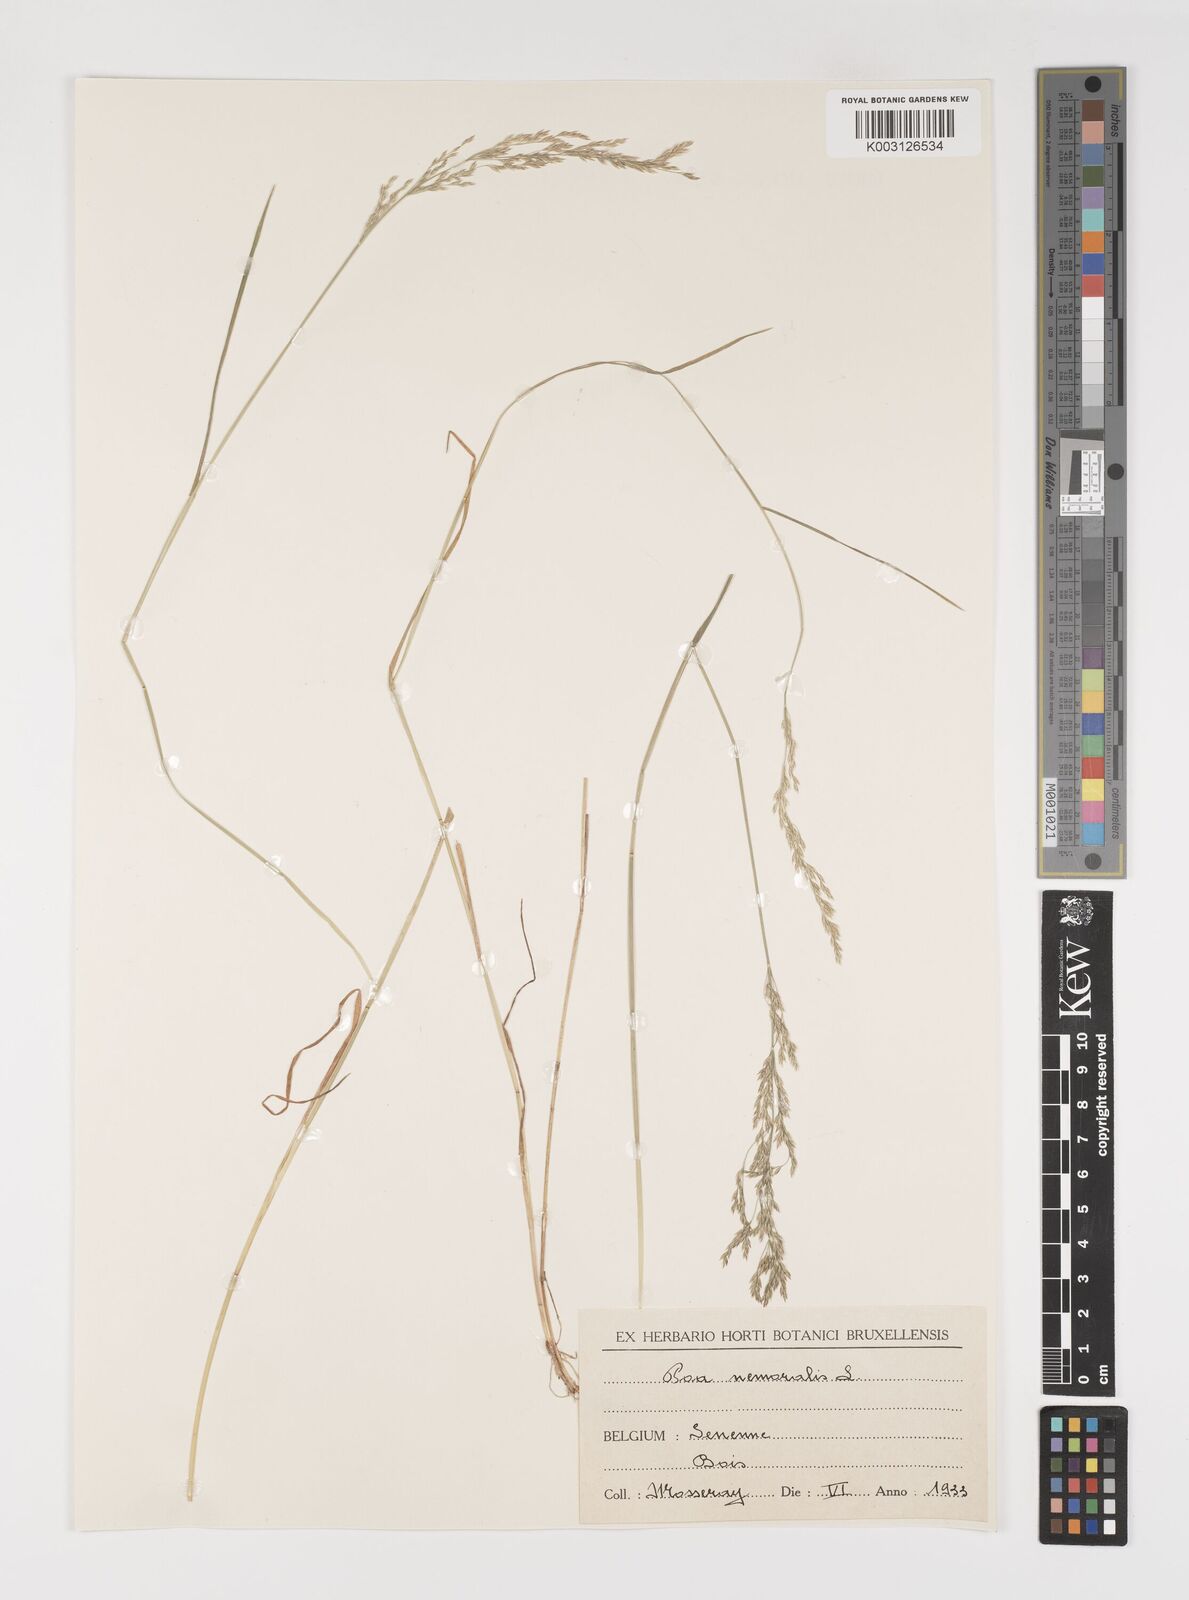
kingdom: Plantae
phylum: Tracheophyta
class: Liliopsida
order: Poales
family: Poaceae
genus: Poa
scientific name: Poa nemoralis
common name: Wood bluegrass
